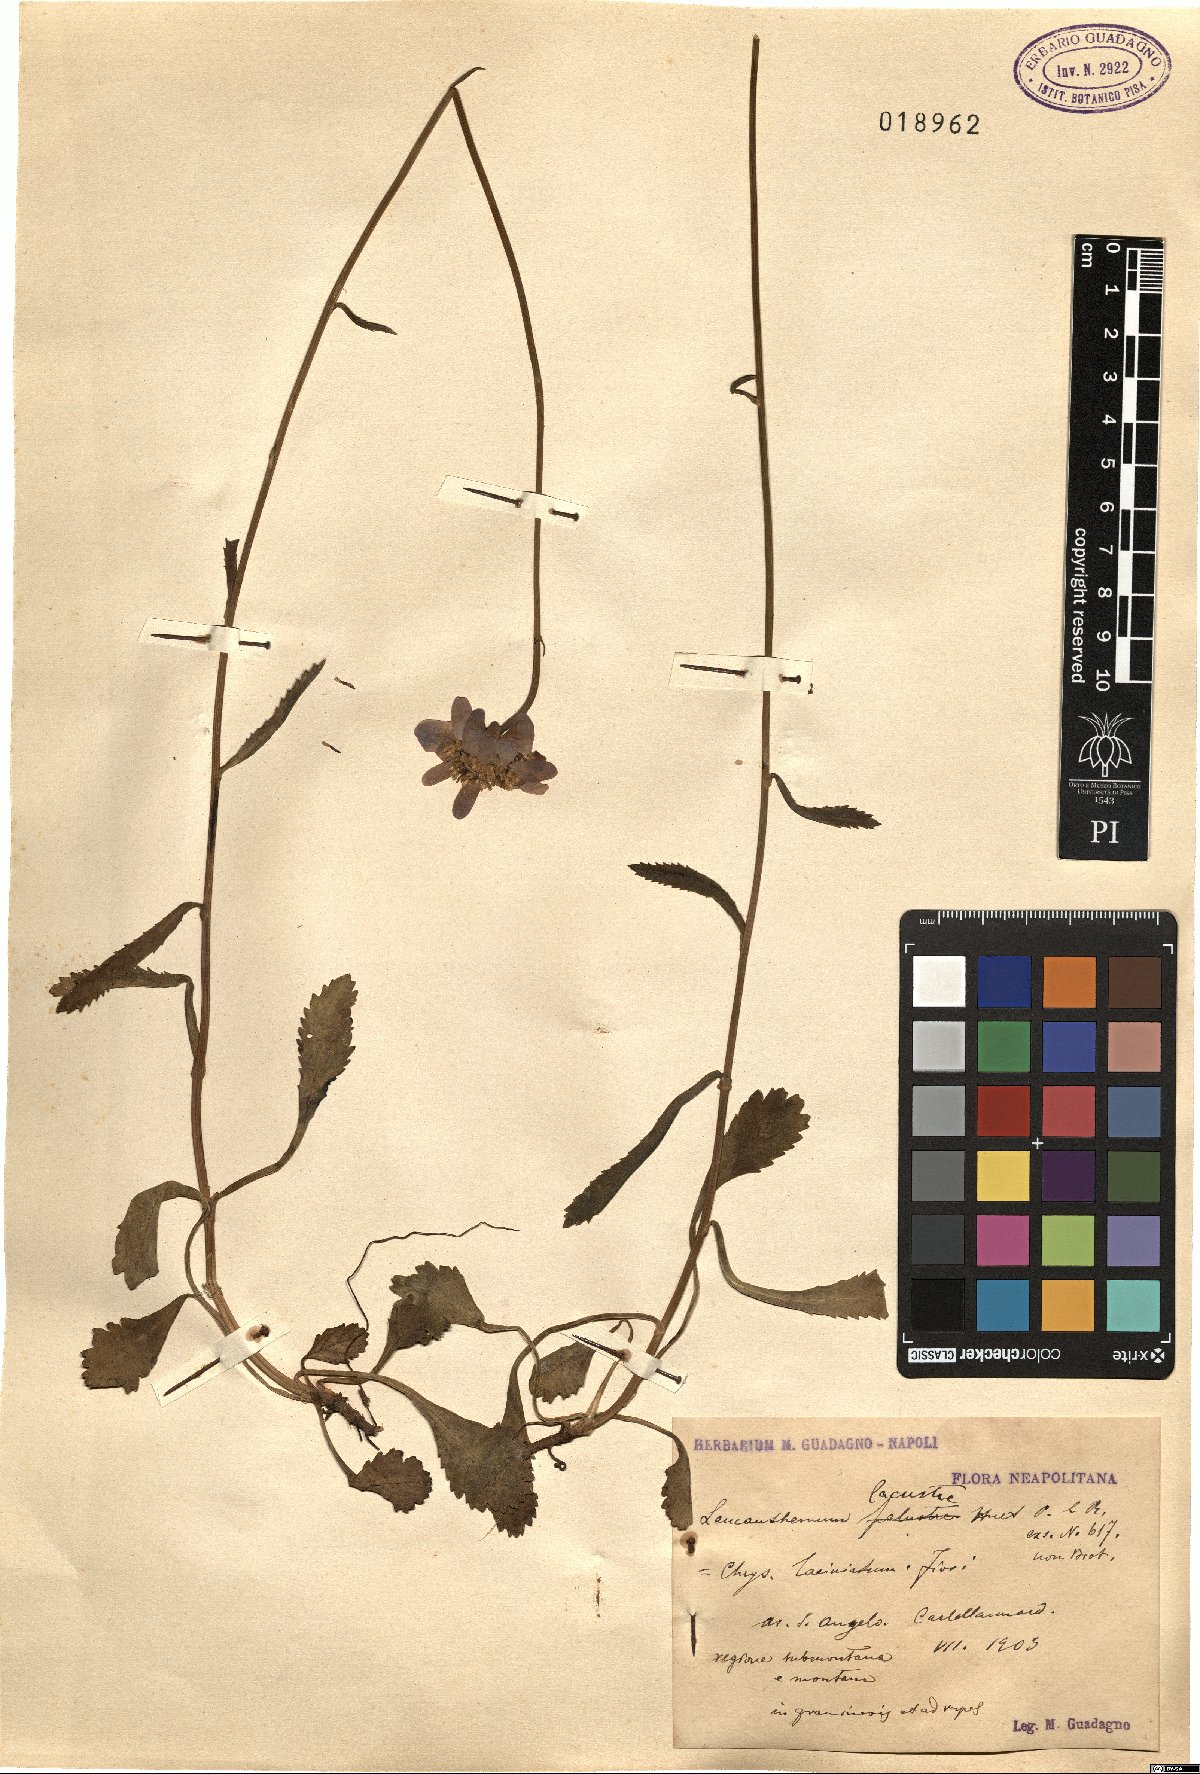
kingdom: Plantae
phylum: Tracheophyta
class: Magnoliopsida
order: Asterales
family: Asteraceae
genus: Leucanthemum
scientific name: Leucanthemum laciniatum
